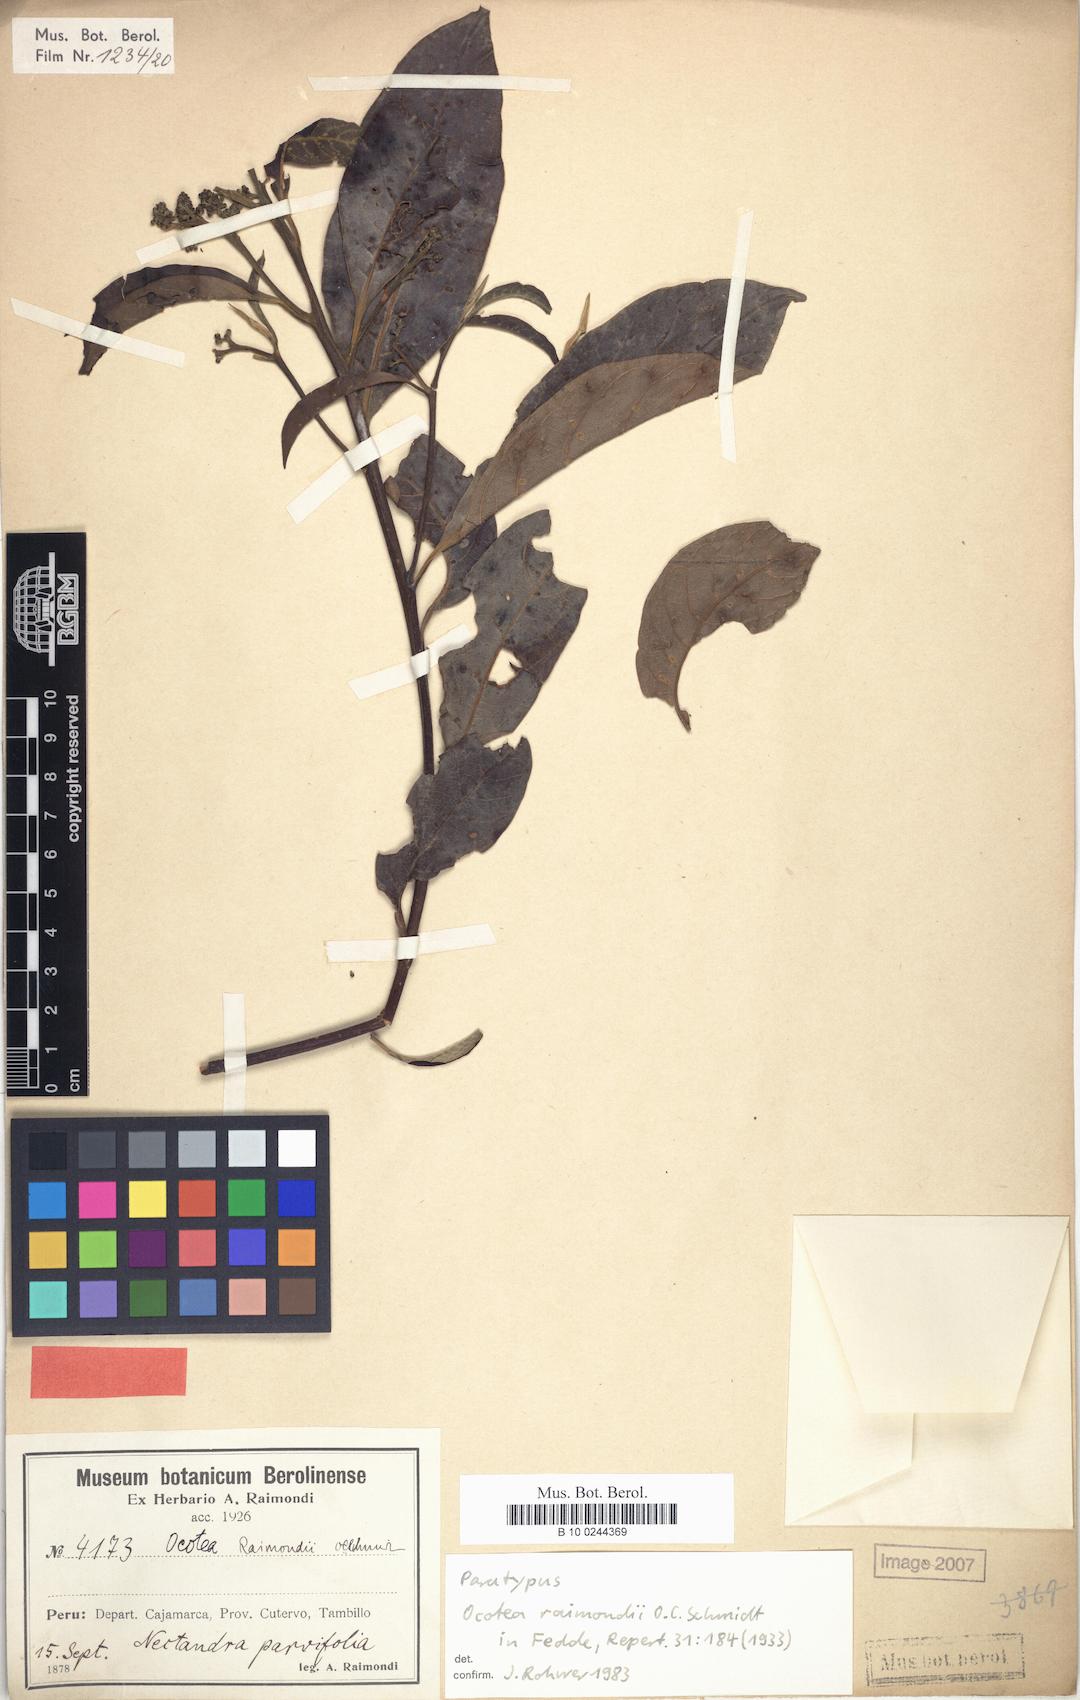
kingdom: Plantae
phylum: Tracheophyta
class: Magnoliopsida
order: Laurales
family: Lauraceae
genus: Ocotea
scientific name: Ocotea cuneifolia
